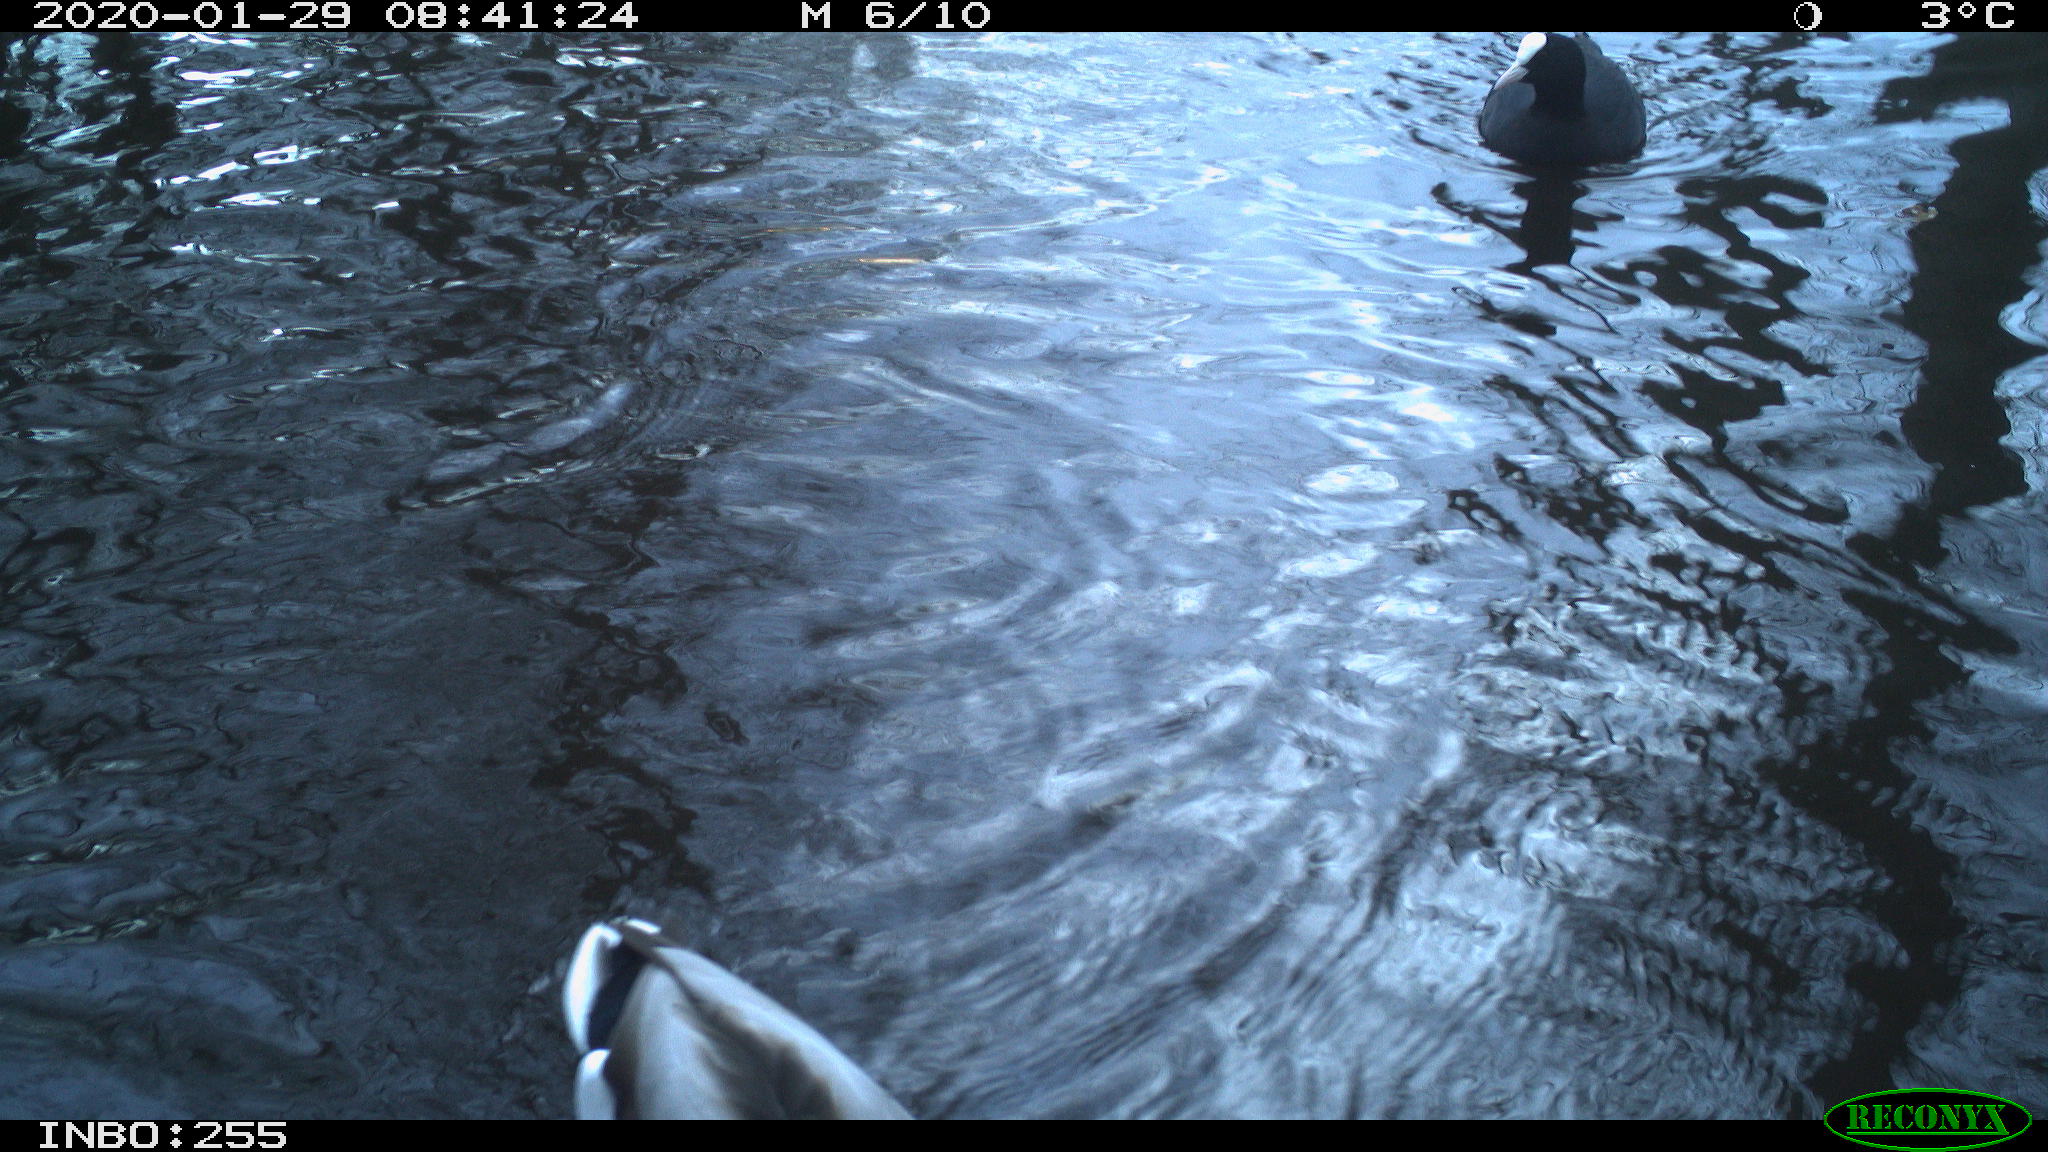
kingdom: Animalia
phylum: Chordata
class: Aves
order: Anseriformes
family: Anatidae
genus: Anas
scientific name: Anas platyrhynchos
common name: Mallard
